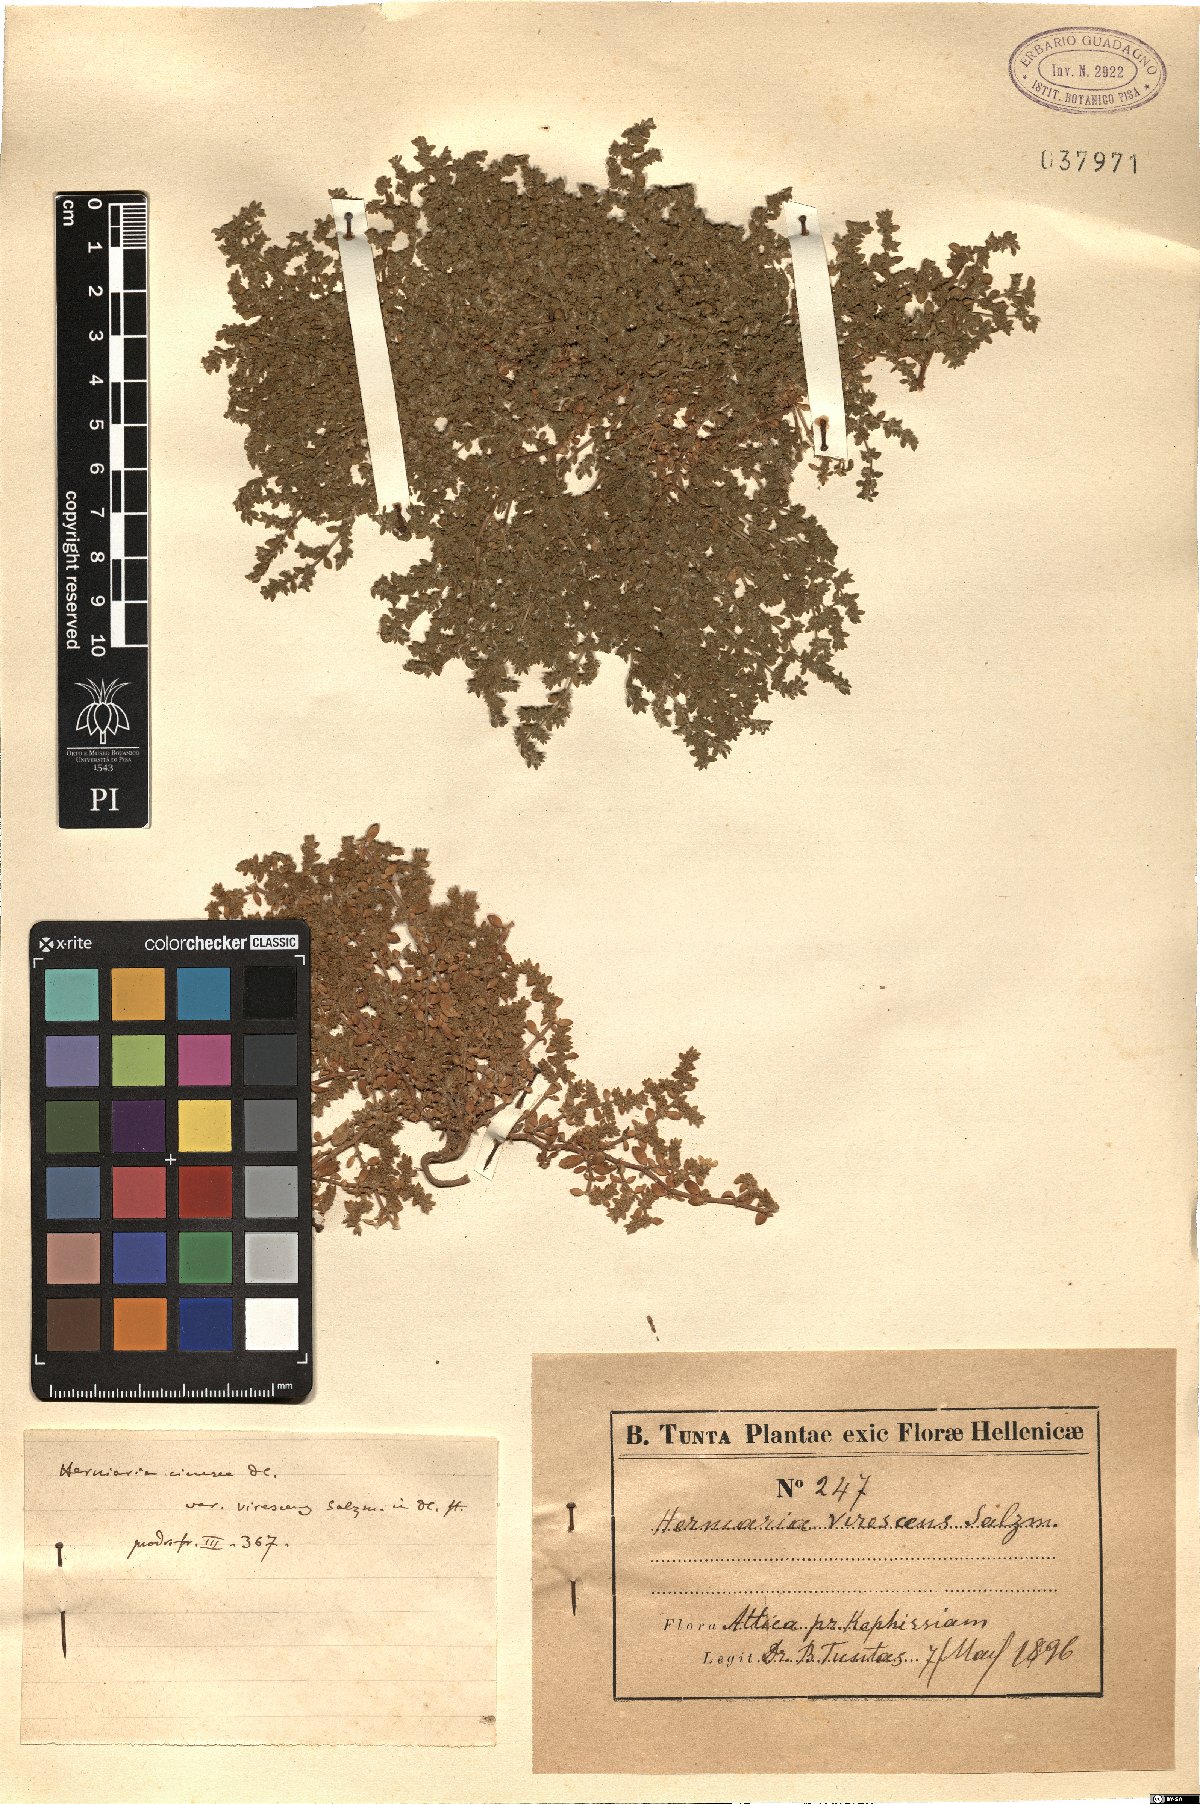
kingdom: Plantae
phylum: Tracheophyta
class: Magnoliopsida
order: Caryophyllales
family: Caryophyllaceae
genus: Herniaria
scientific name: Herniaria cinerea
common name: Hairy rupturewort
